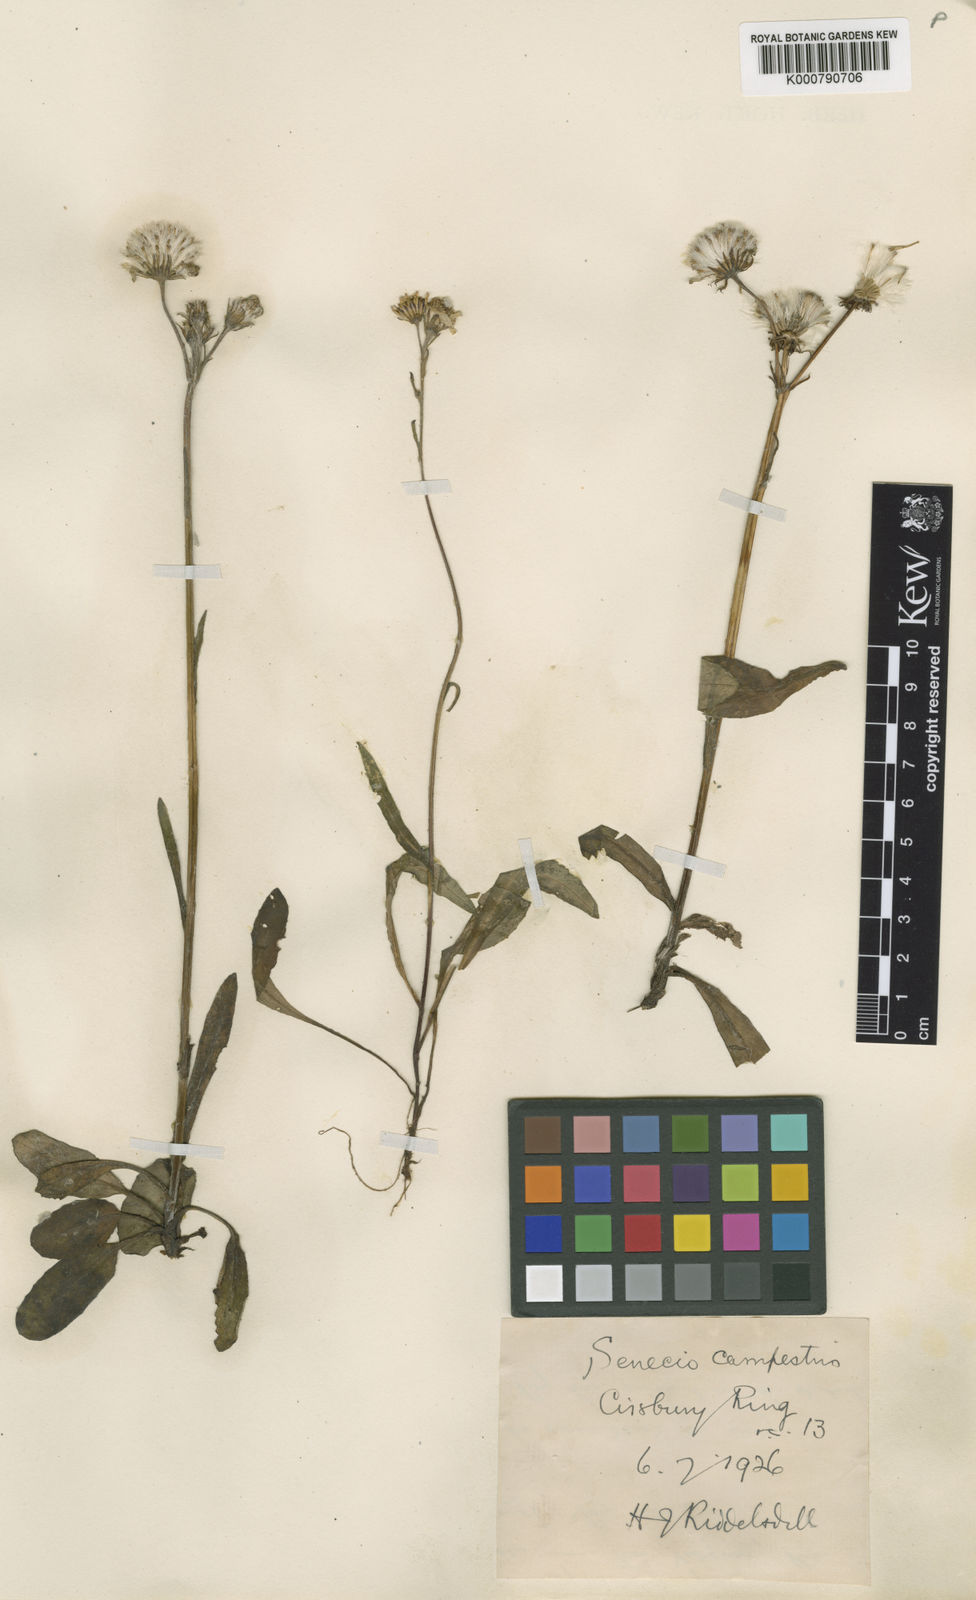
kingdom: Plantae
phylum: Tracheophyta
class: Magnoliopsida
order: Asterales
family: Asteraceae
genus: Tephroseris
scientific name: Tephroseris integrifolia
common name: Field fleawort
